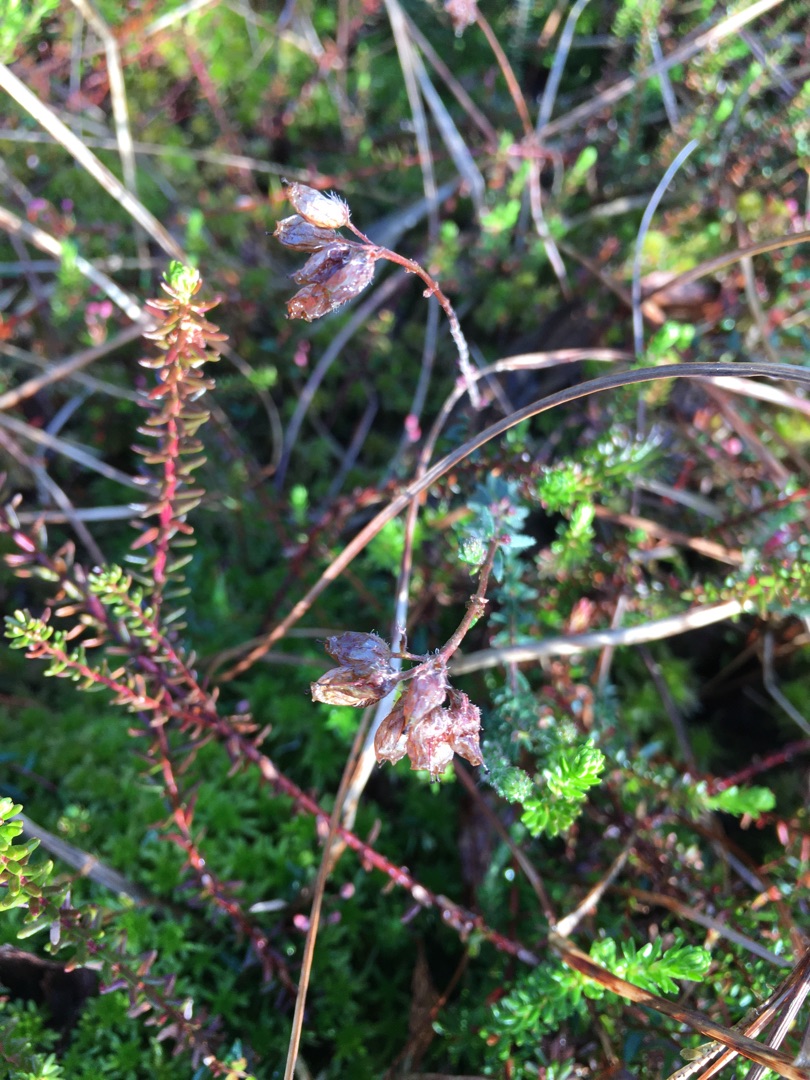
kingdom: Plantae
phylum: Tracheophyta
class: Magnoliopsida
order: Ericales
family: Ericaceae
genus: Erica
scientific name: Erica tetralix
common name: Klokkelyng
